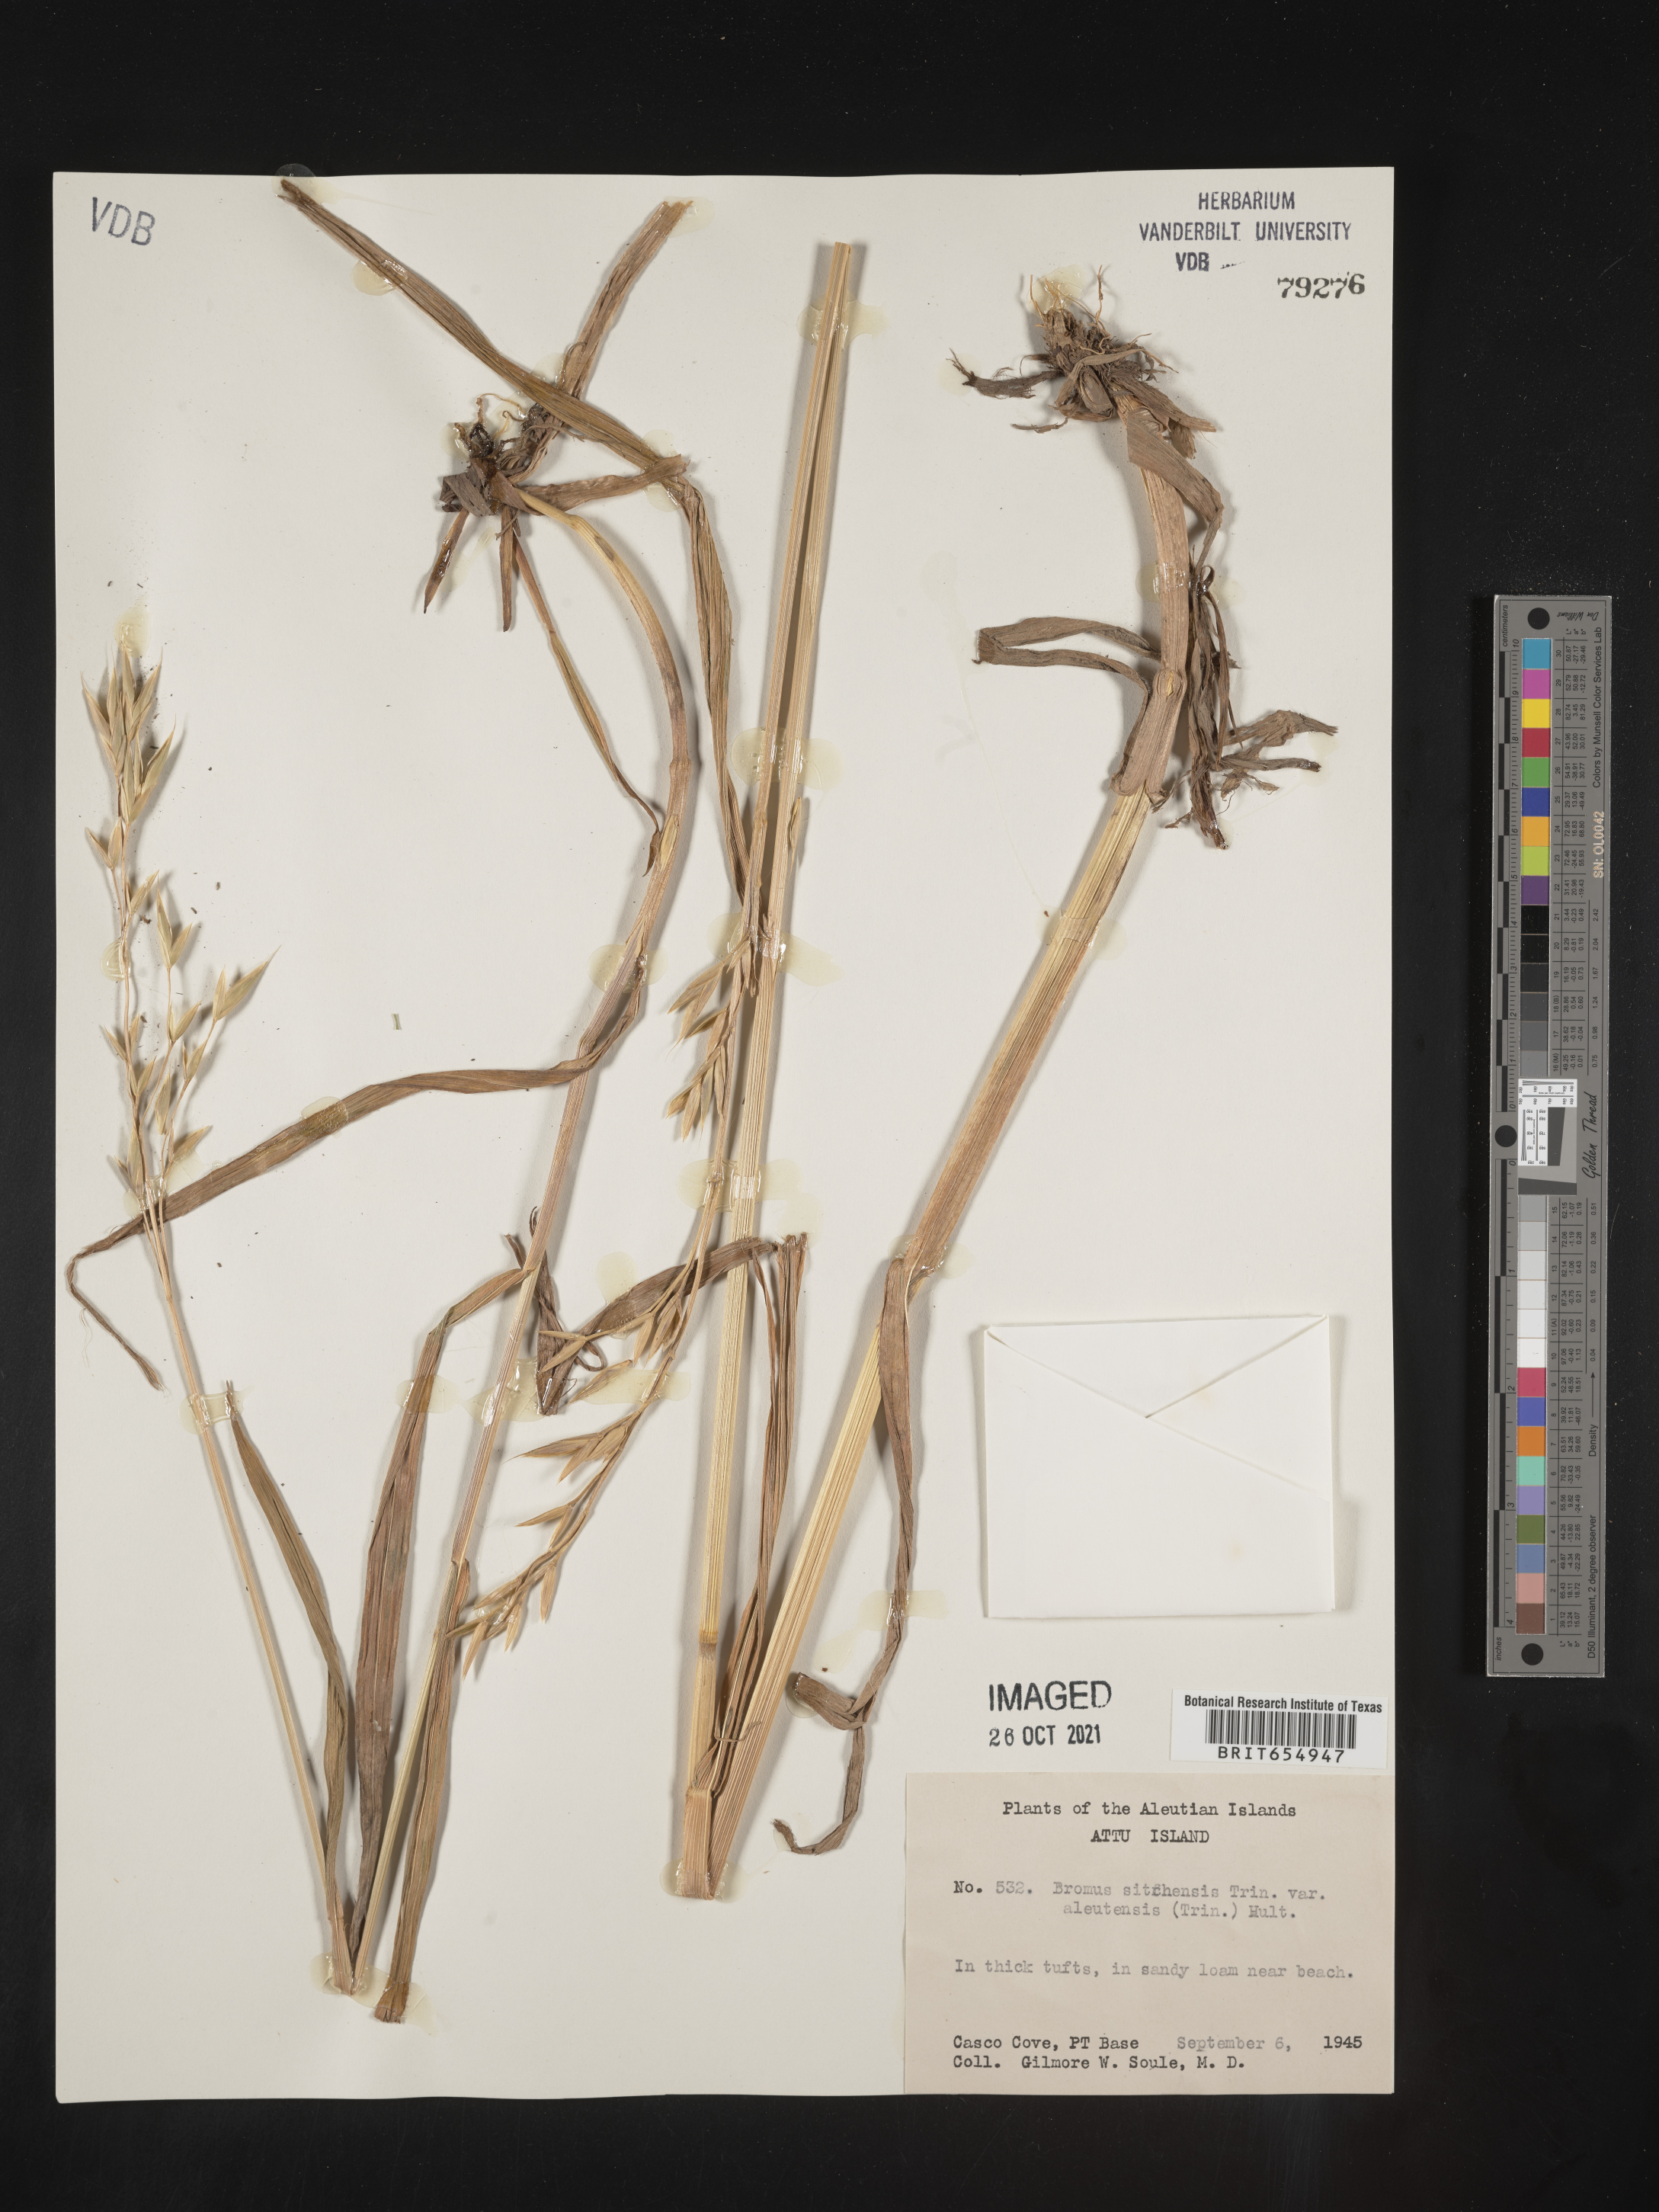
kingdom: Plantae
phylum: Tracheophyta
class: Liliopsida
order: Poales
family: Poaceae
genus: Bromus
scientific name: Bromus
